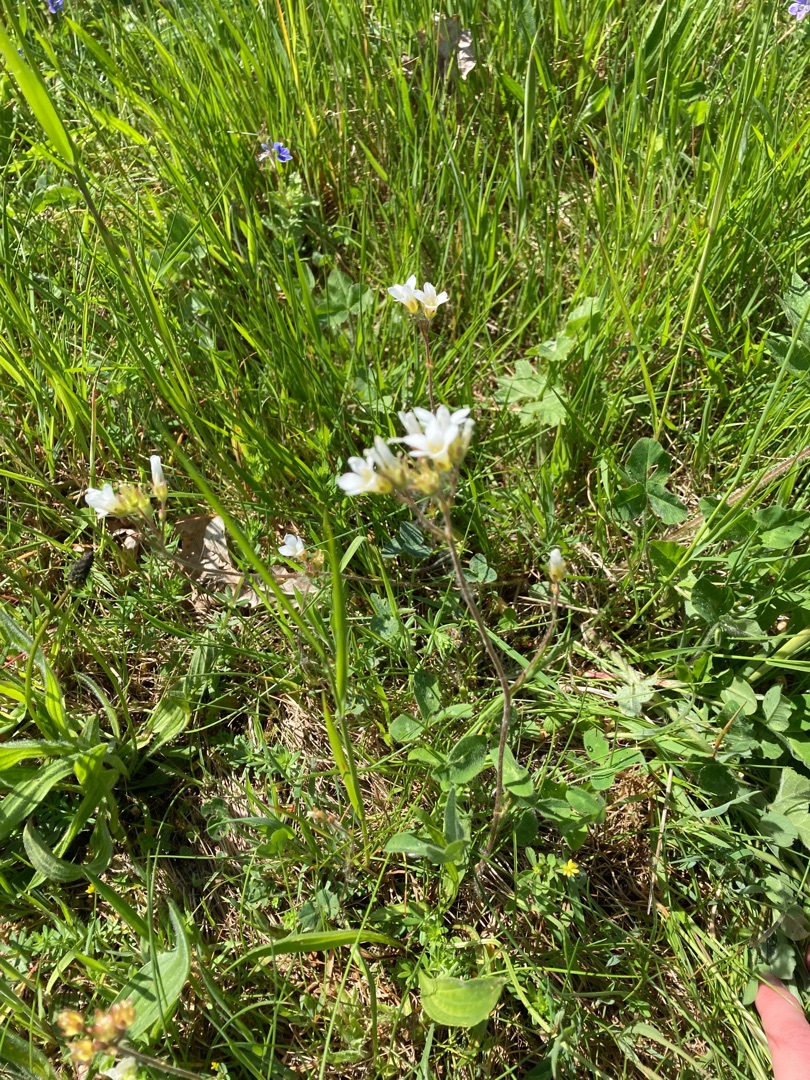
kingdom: Plantae
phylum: Tracheophyta
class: Magnoliopsida
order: Saxifragales
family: Saxifragaceae
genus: Saxifraga
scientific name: Saxifraga granulata
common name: Kornet stenbræk
